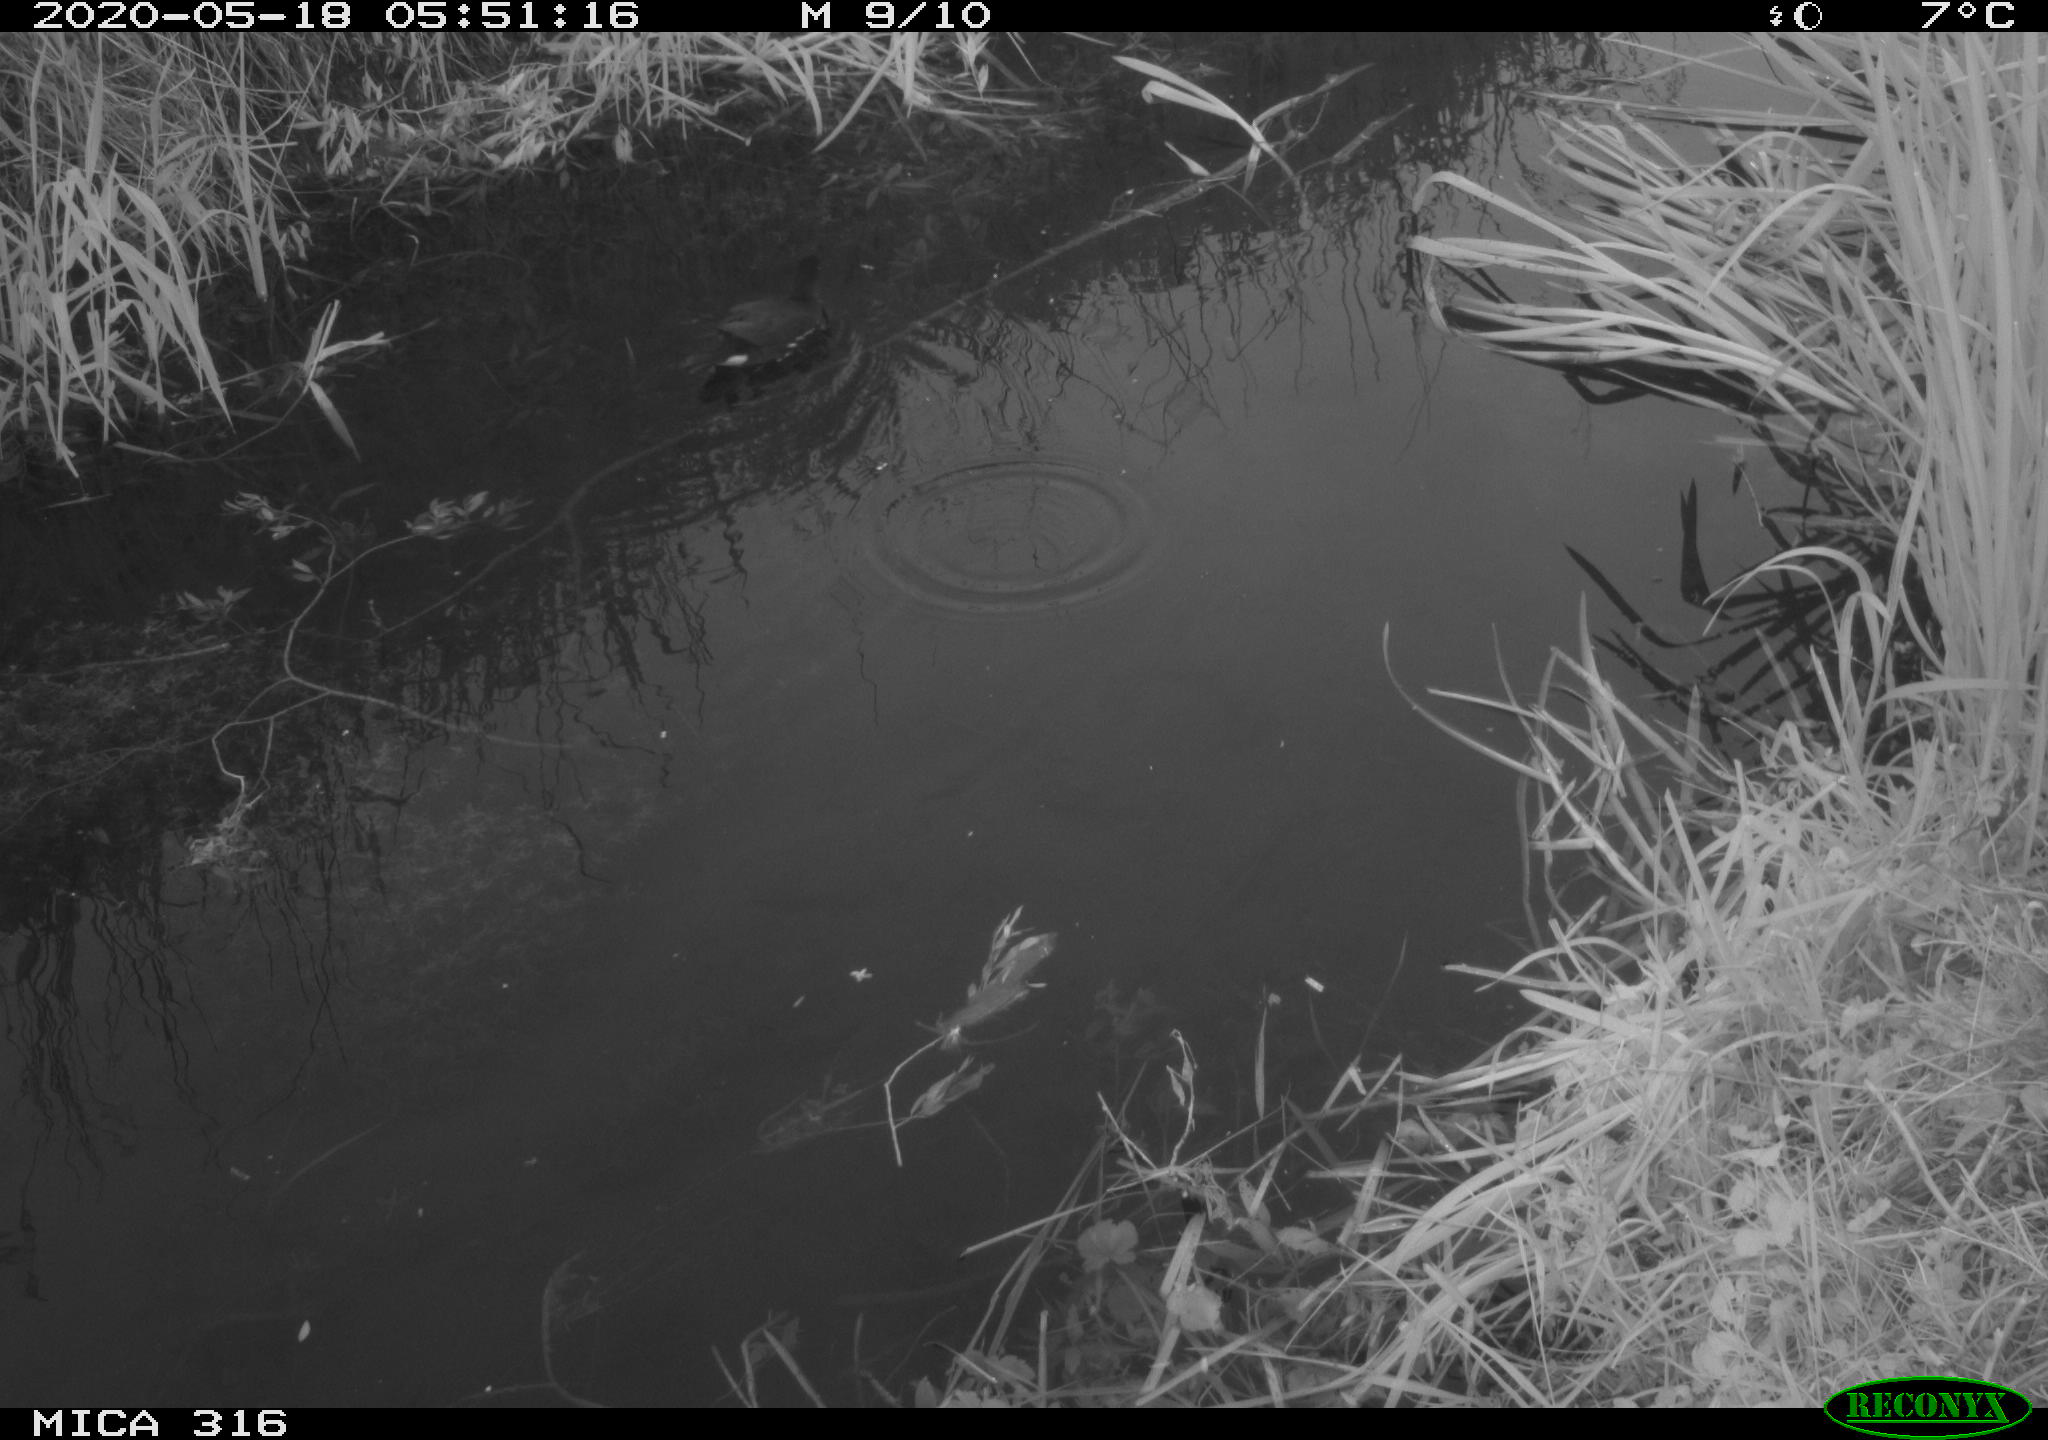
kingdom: Animalia
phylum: Chordata
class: Aves
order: Gruiformes
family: Rallidae
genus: Gallinula
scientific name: Gallinula chloropus
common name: Common moorhen
